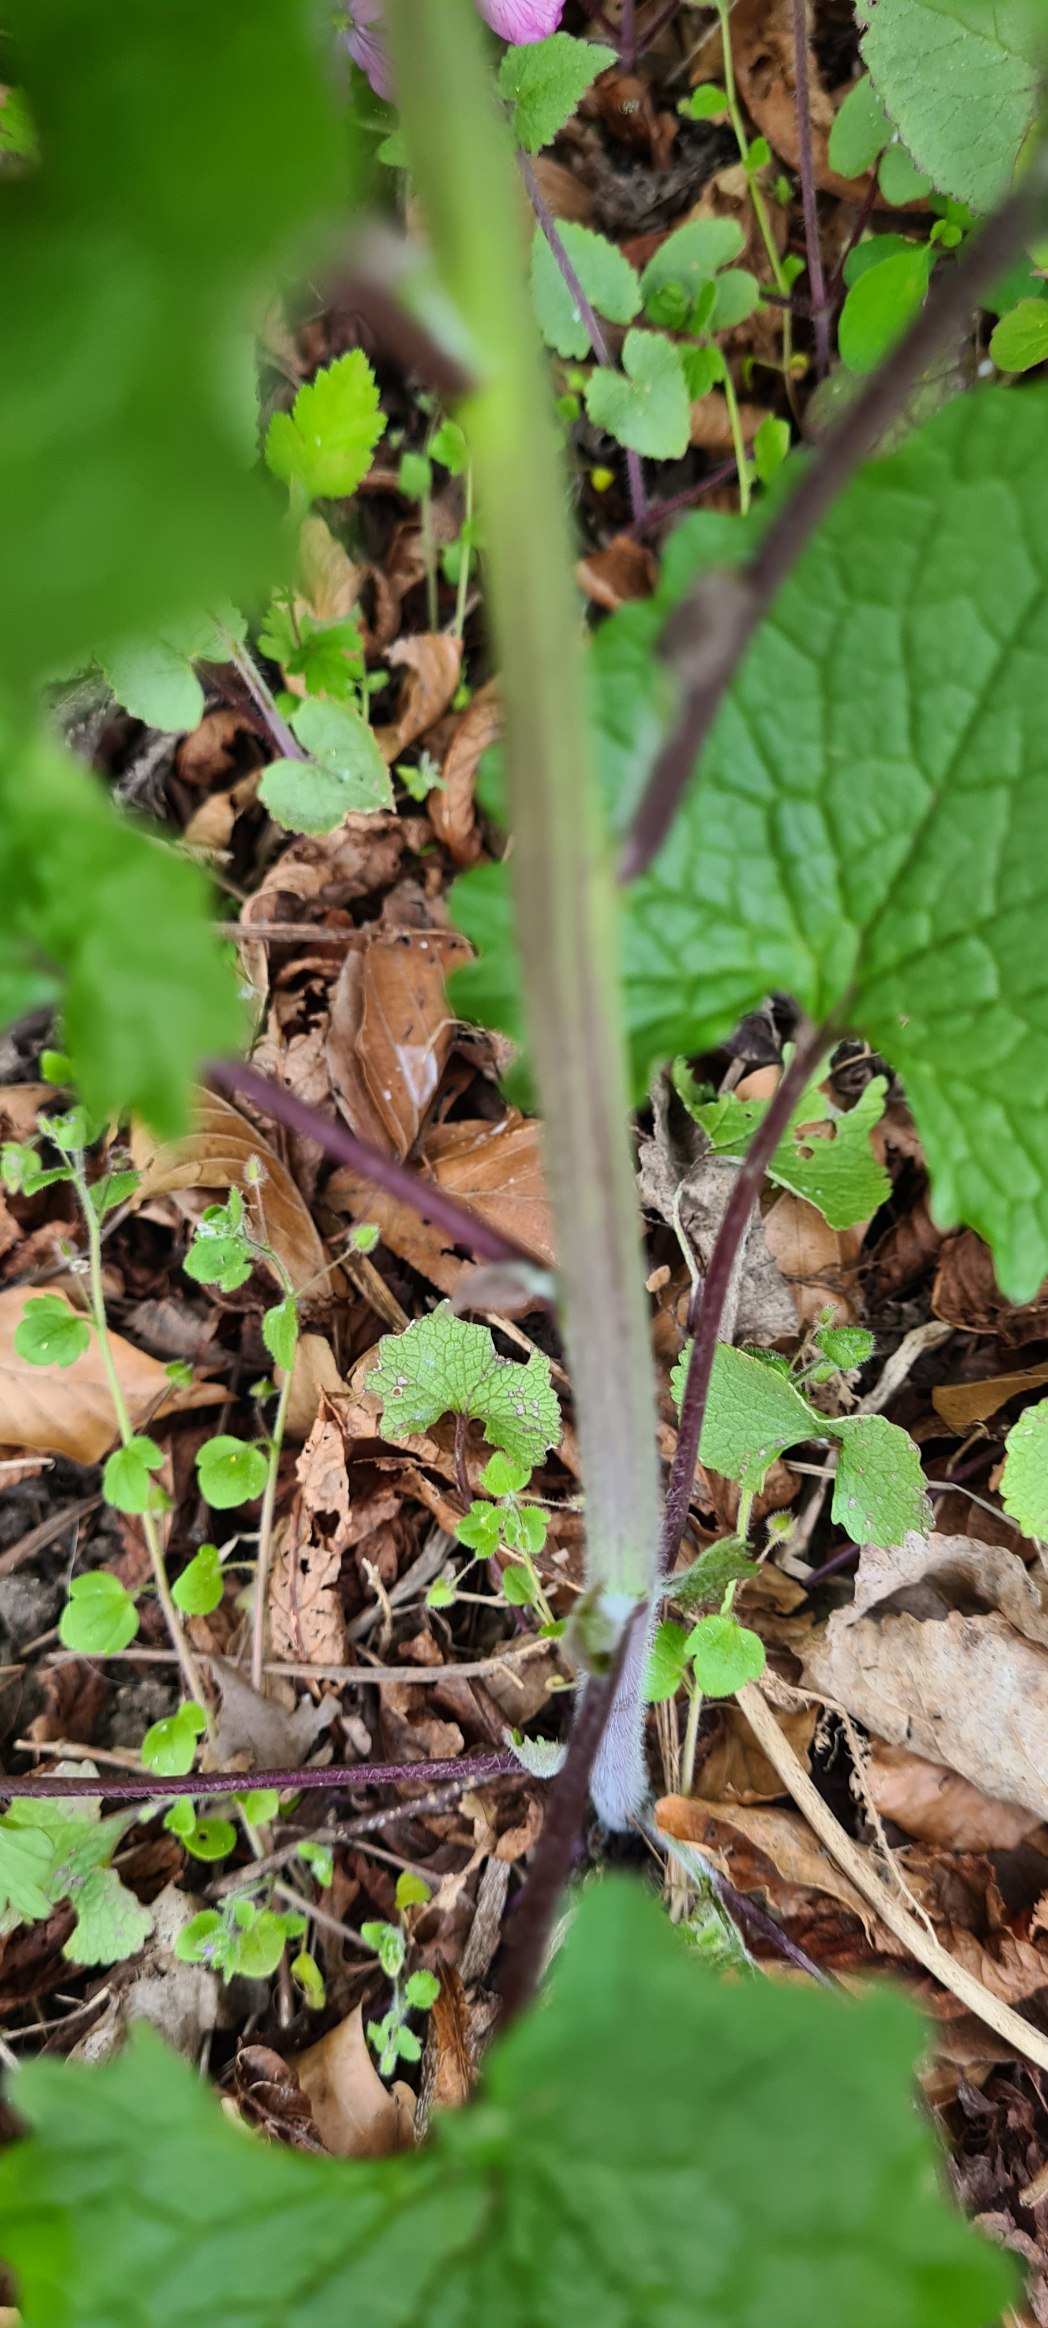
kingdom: Plantae
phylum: Tracheophyta
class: Magnoliopsida
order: Brassicales
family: Brassicaceae
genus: Alliaria
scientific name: Alliaria petiolata
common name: Løgkarse
